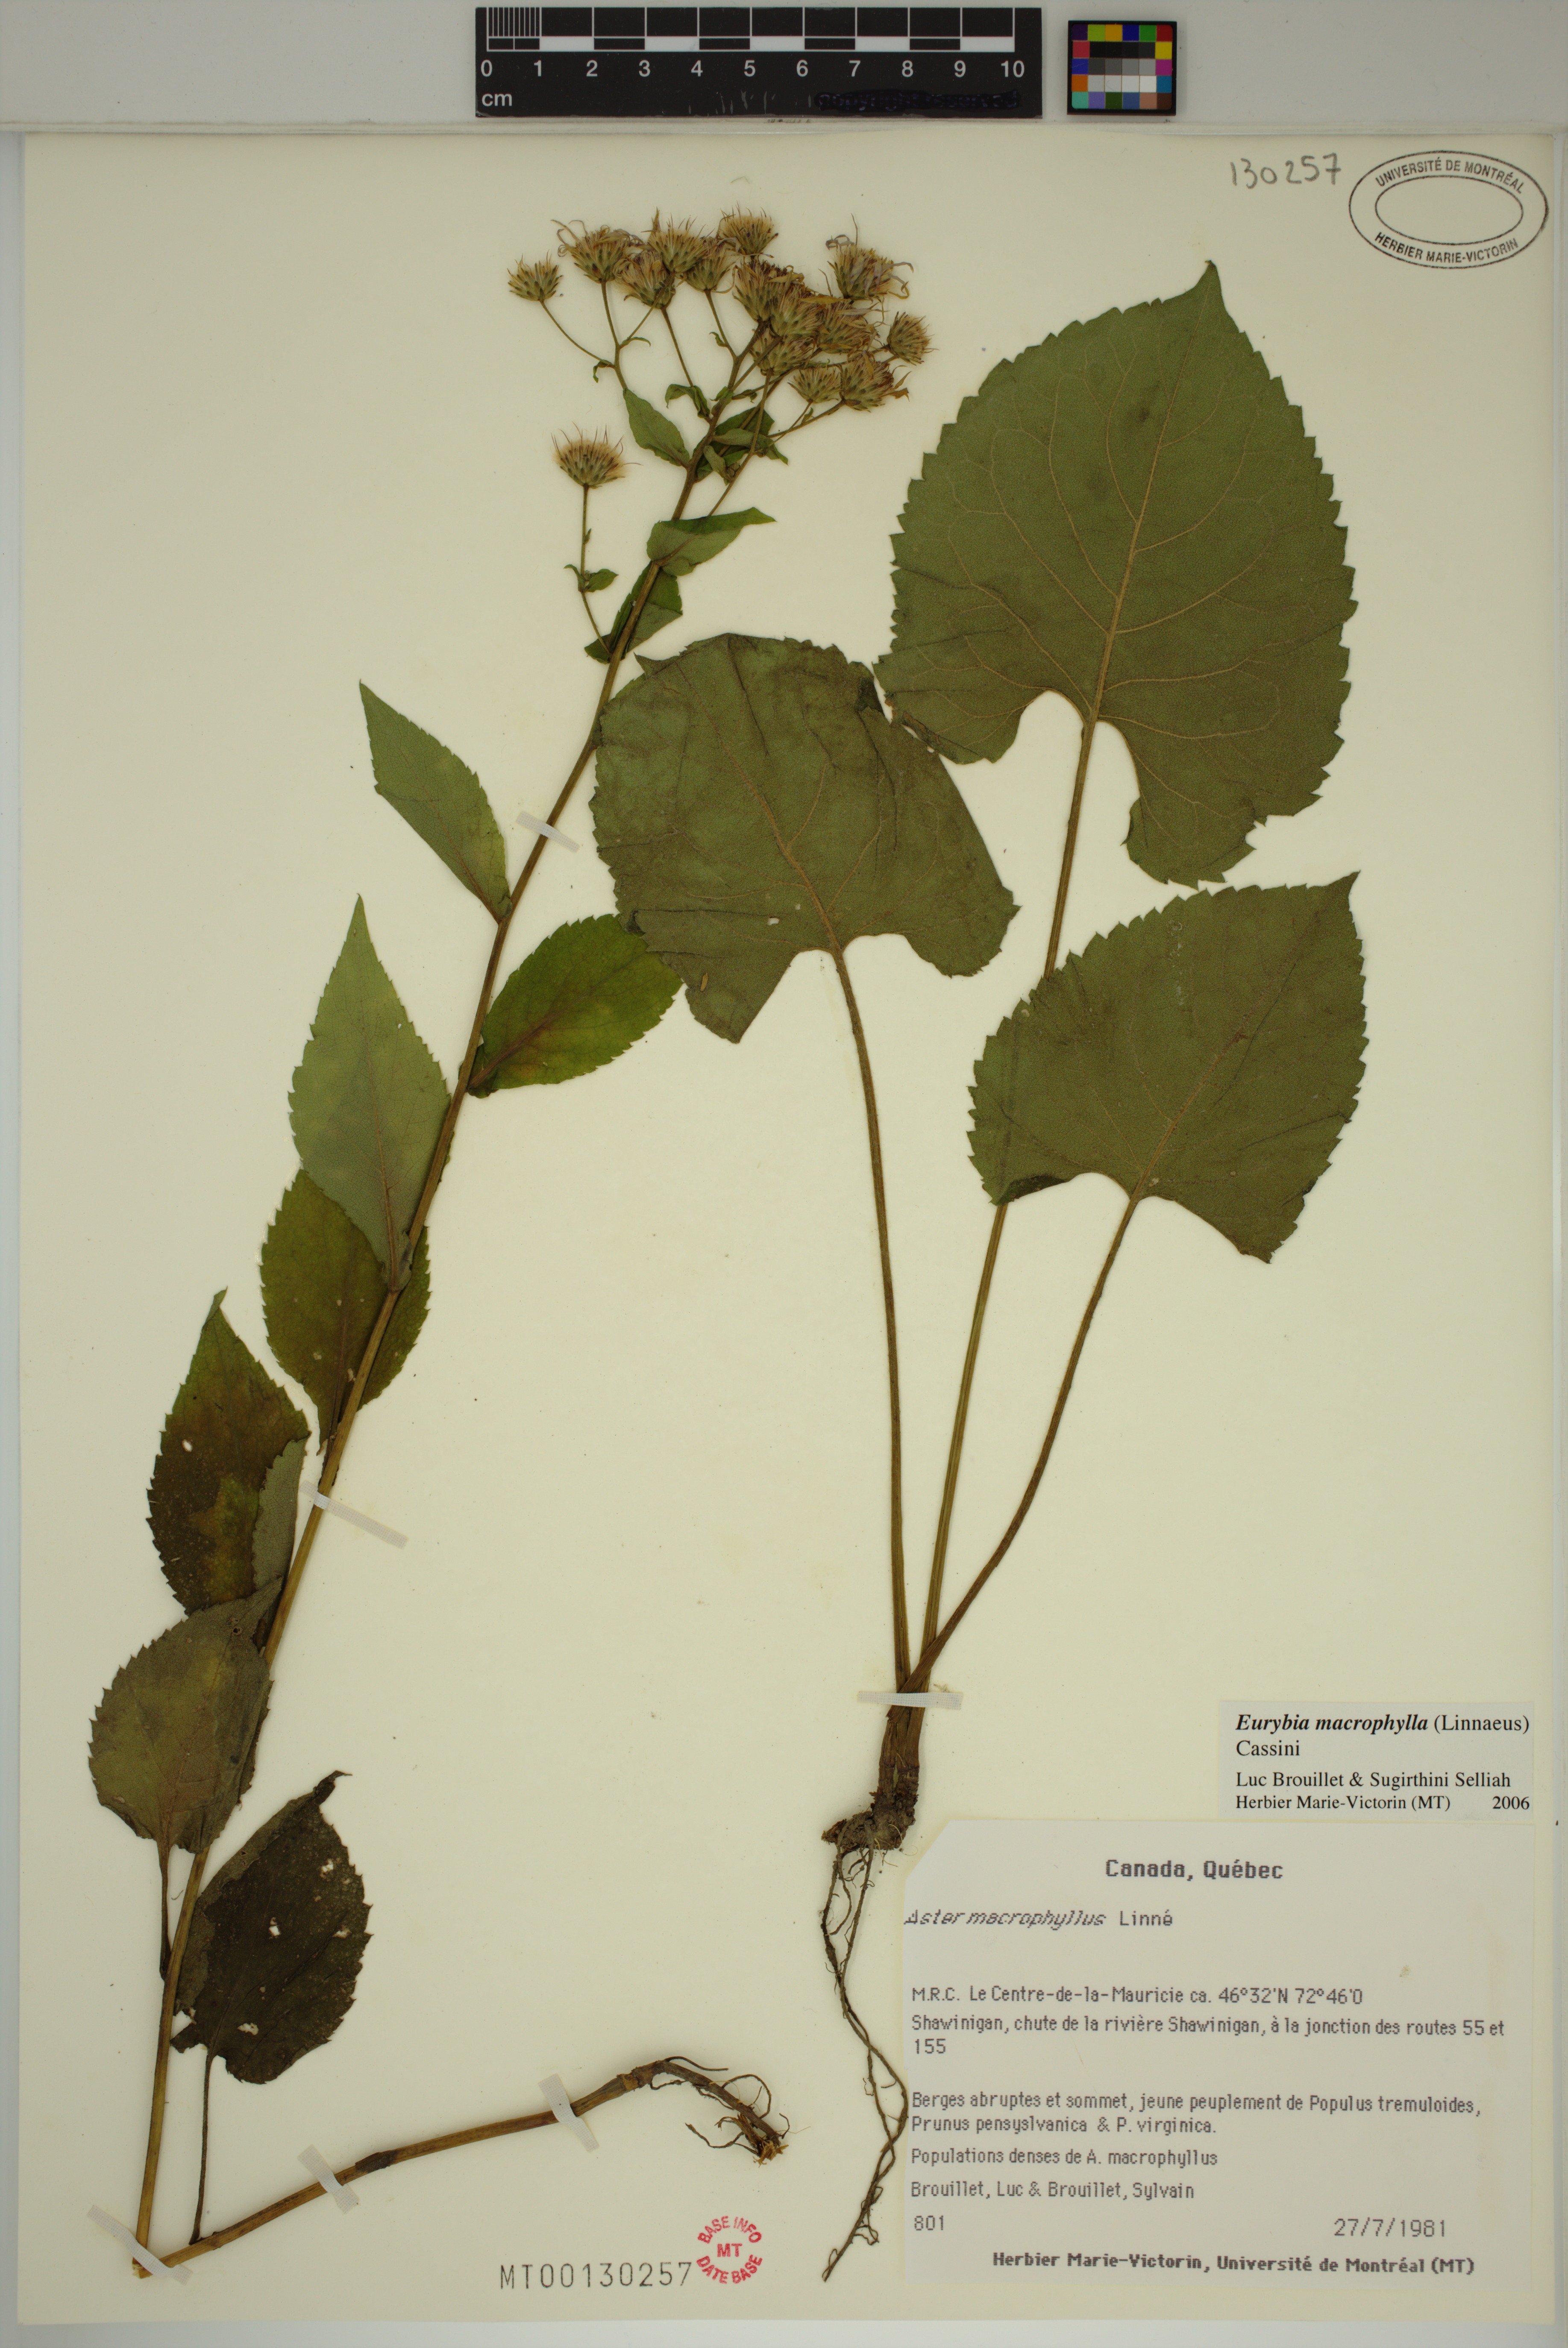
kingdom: Plantae
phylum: Tracheophyta
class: Magnoliopsida
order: Asterales
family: Asteraceae
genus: Eurybia
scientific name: Eurybia macrophylla
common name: Big-leaved aster
